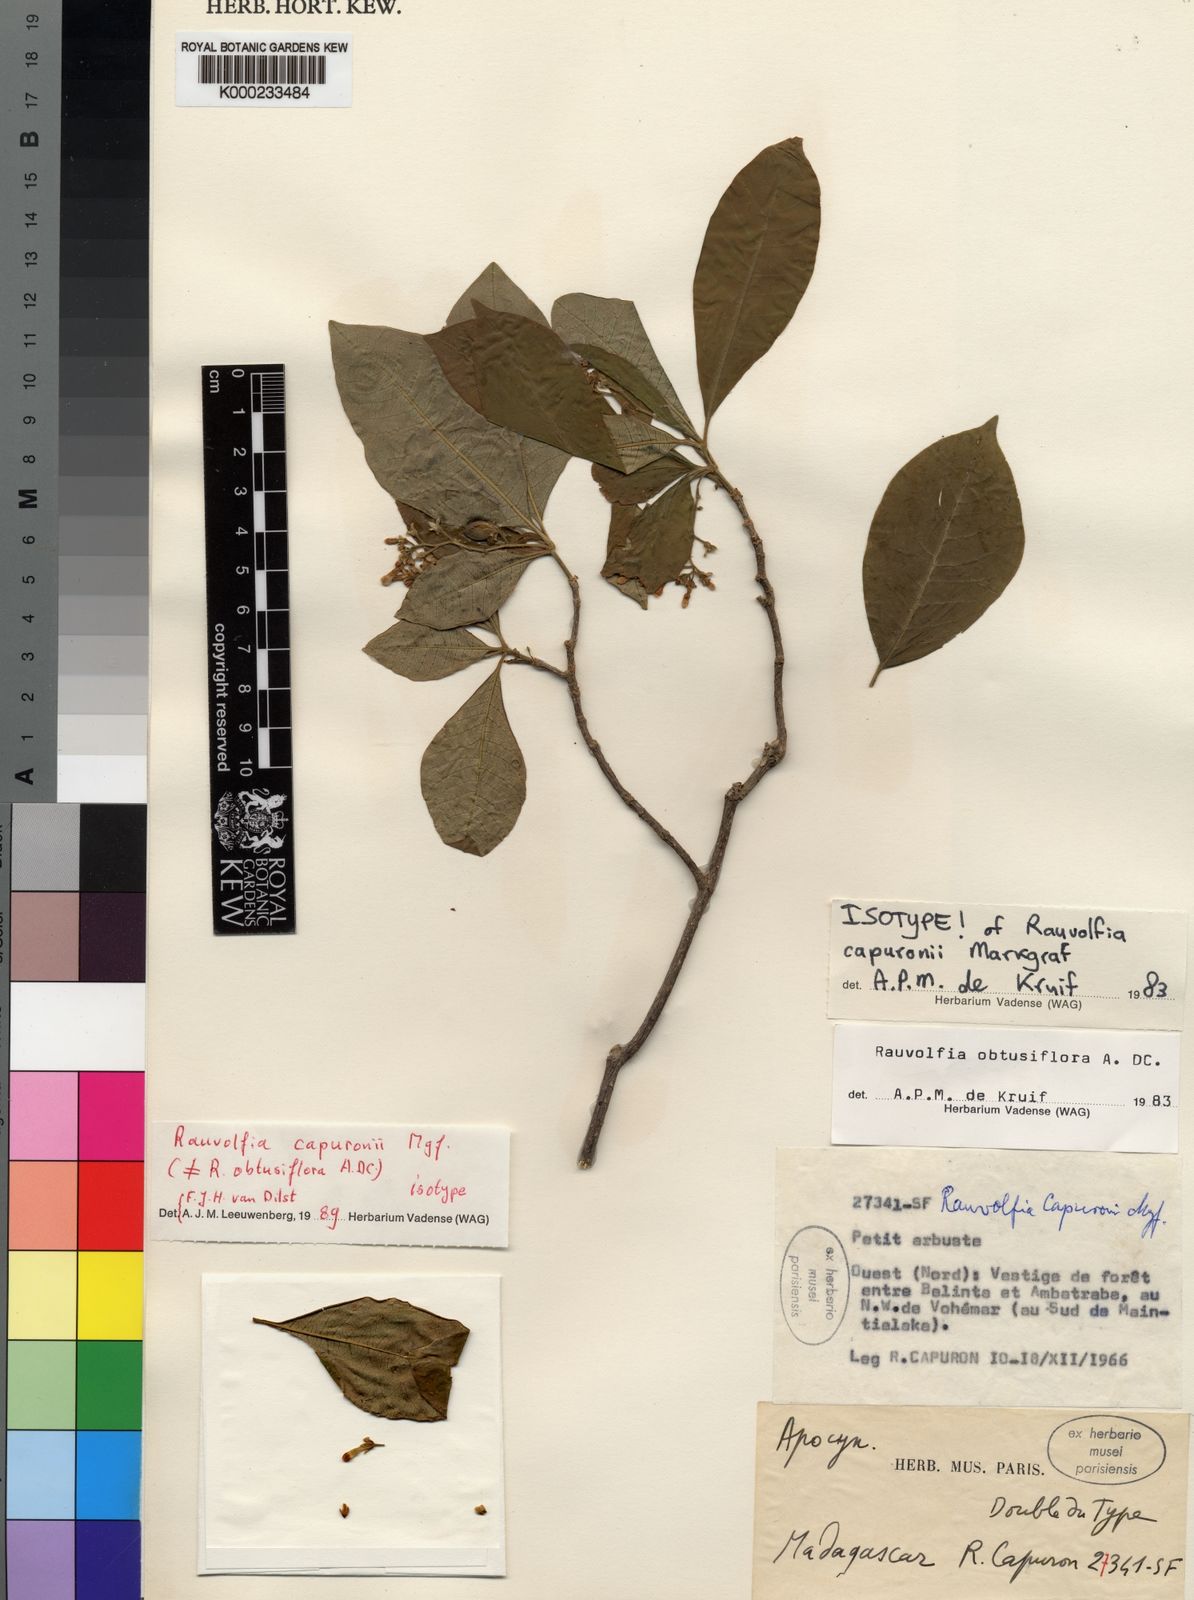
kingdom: Plantae
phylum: Tracheophyta
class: Magnoliopsida
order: Gentianales
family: Apocynaceae
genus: Rauvolfia
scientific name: Rauvolfia capuronii
